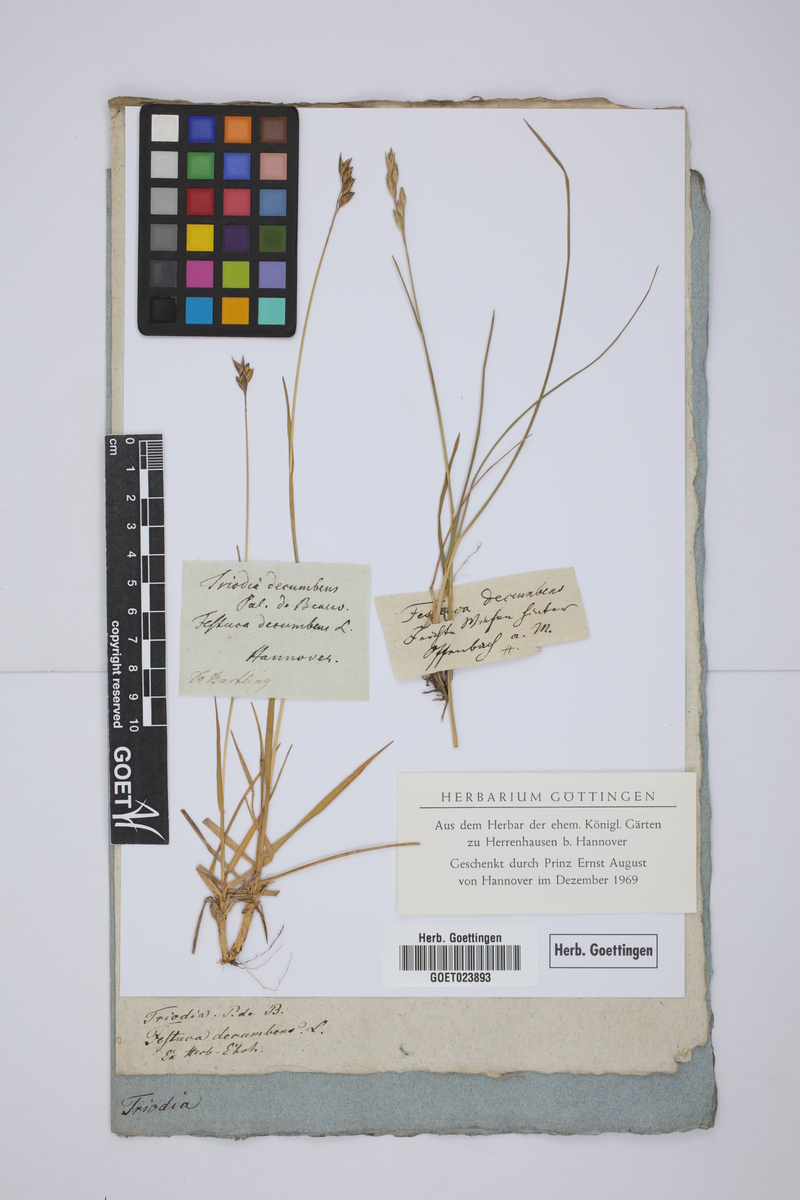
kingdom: Plantae
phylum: Tracheophyta
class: Liliopsida
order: Poales
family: Poaceae
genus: Danthonia
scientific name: Danthonia decumbens
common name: Common heathgrass
